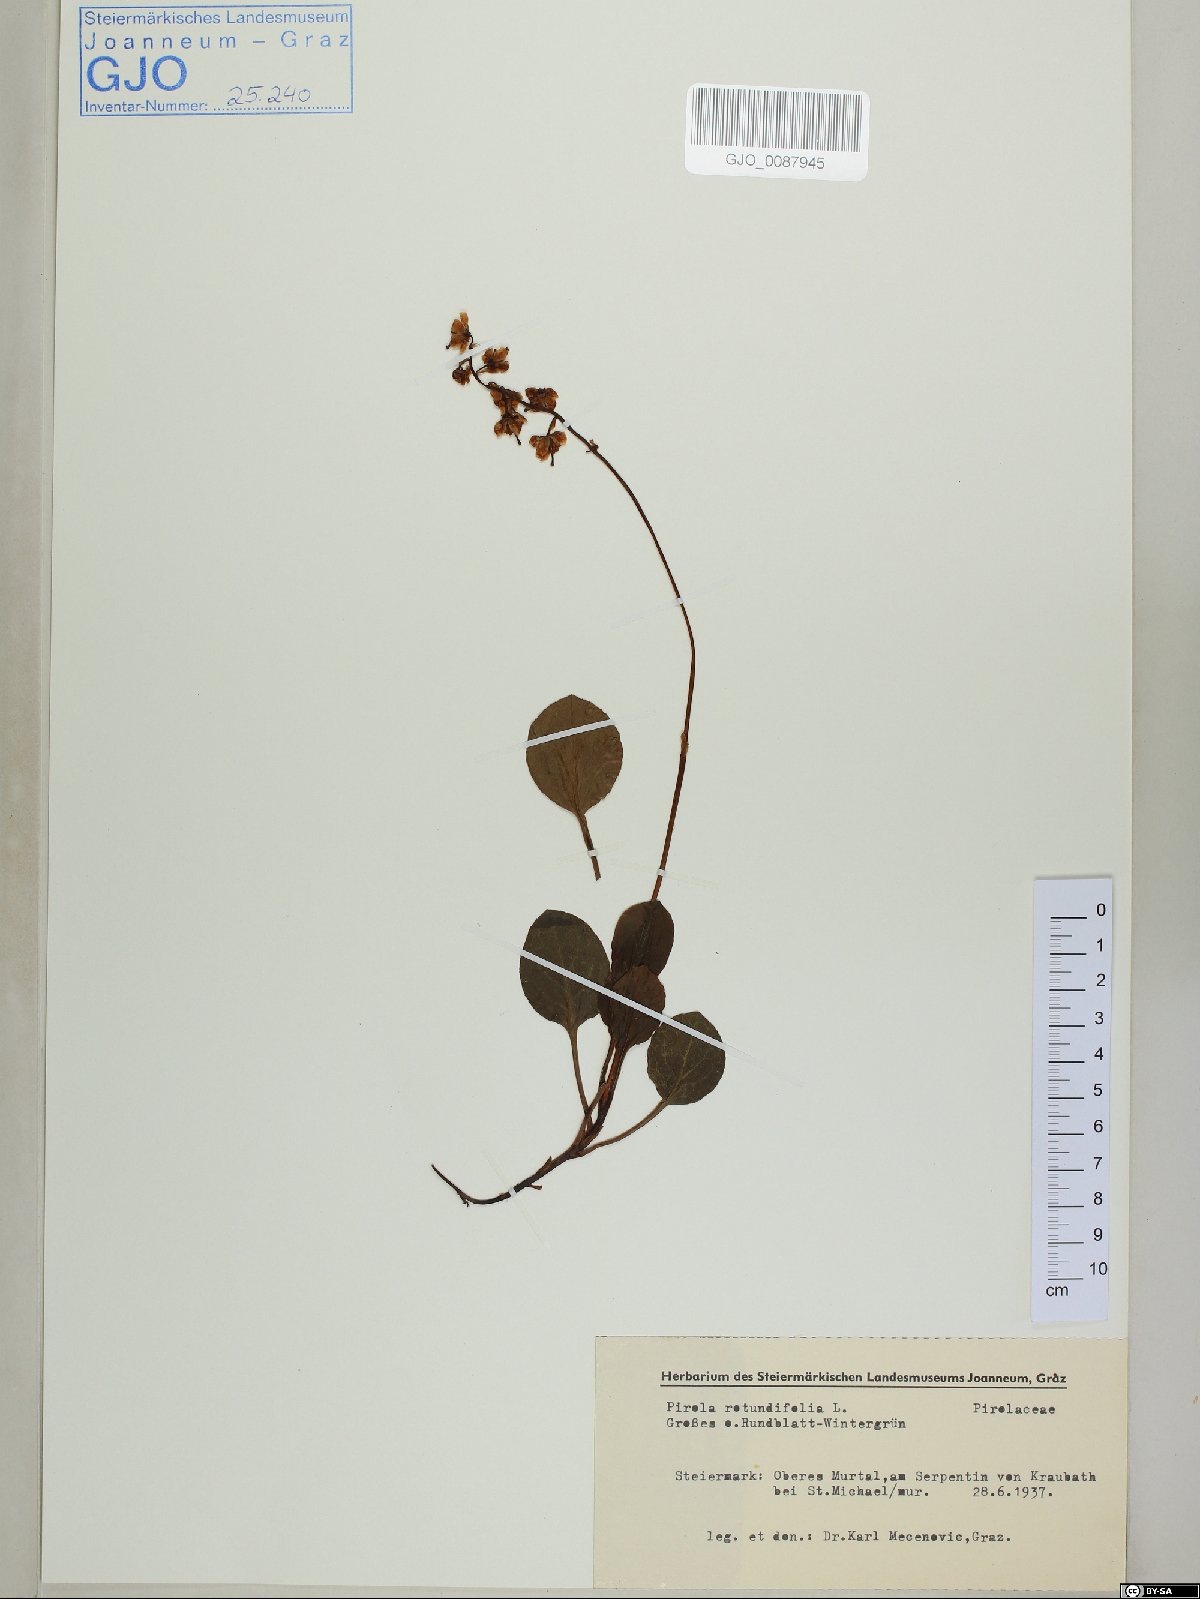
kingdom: Plantae
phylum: Tracheophyta
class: Magnoliopsida
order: Ericales
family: Ericaceae
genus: Pyrola
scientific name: Pyrola rotundifolia
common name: Round-leaved wintergreen
